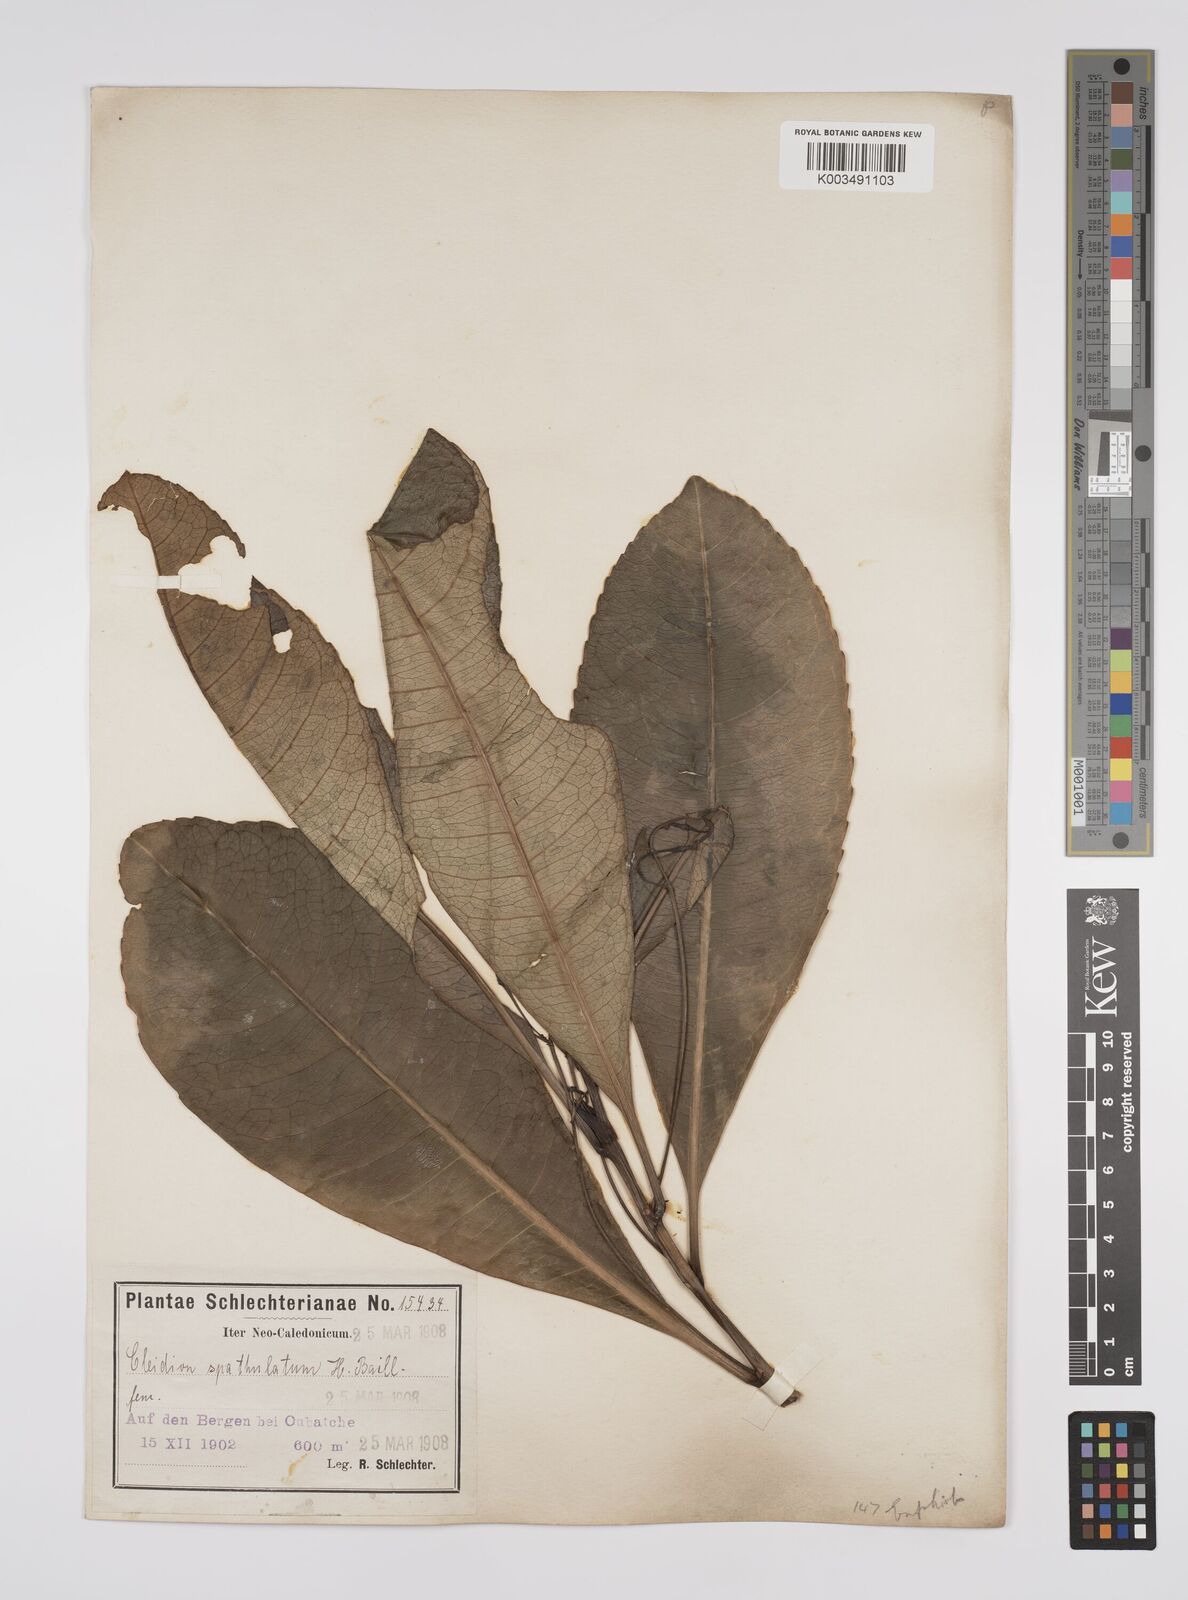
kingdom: Plantae
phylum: Tracheophyta
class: Magnoliopsida
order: Malpighiales
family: Euphorbiaceae
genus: Cleidion
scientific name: Cleidion spathulatum
